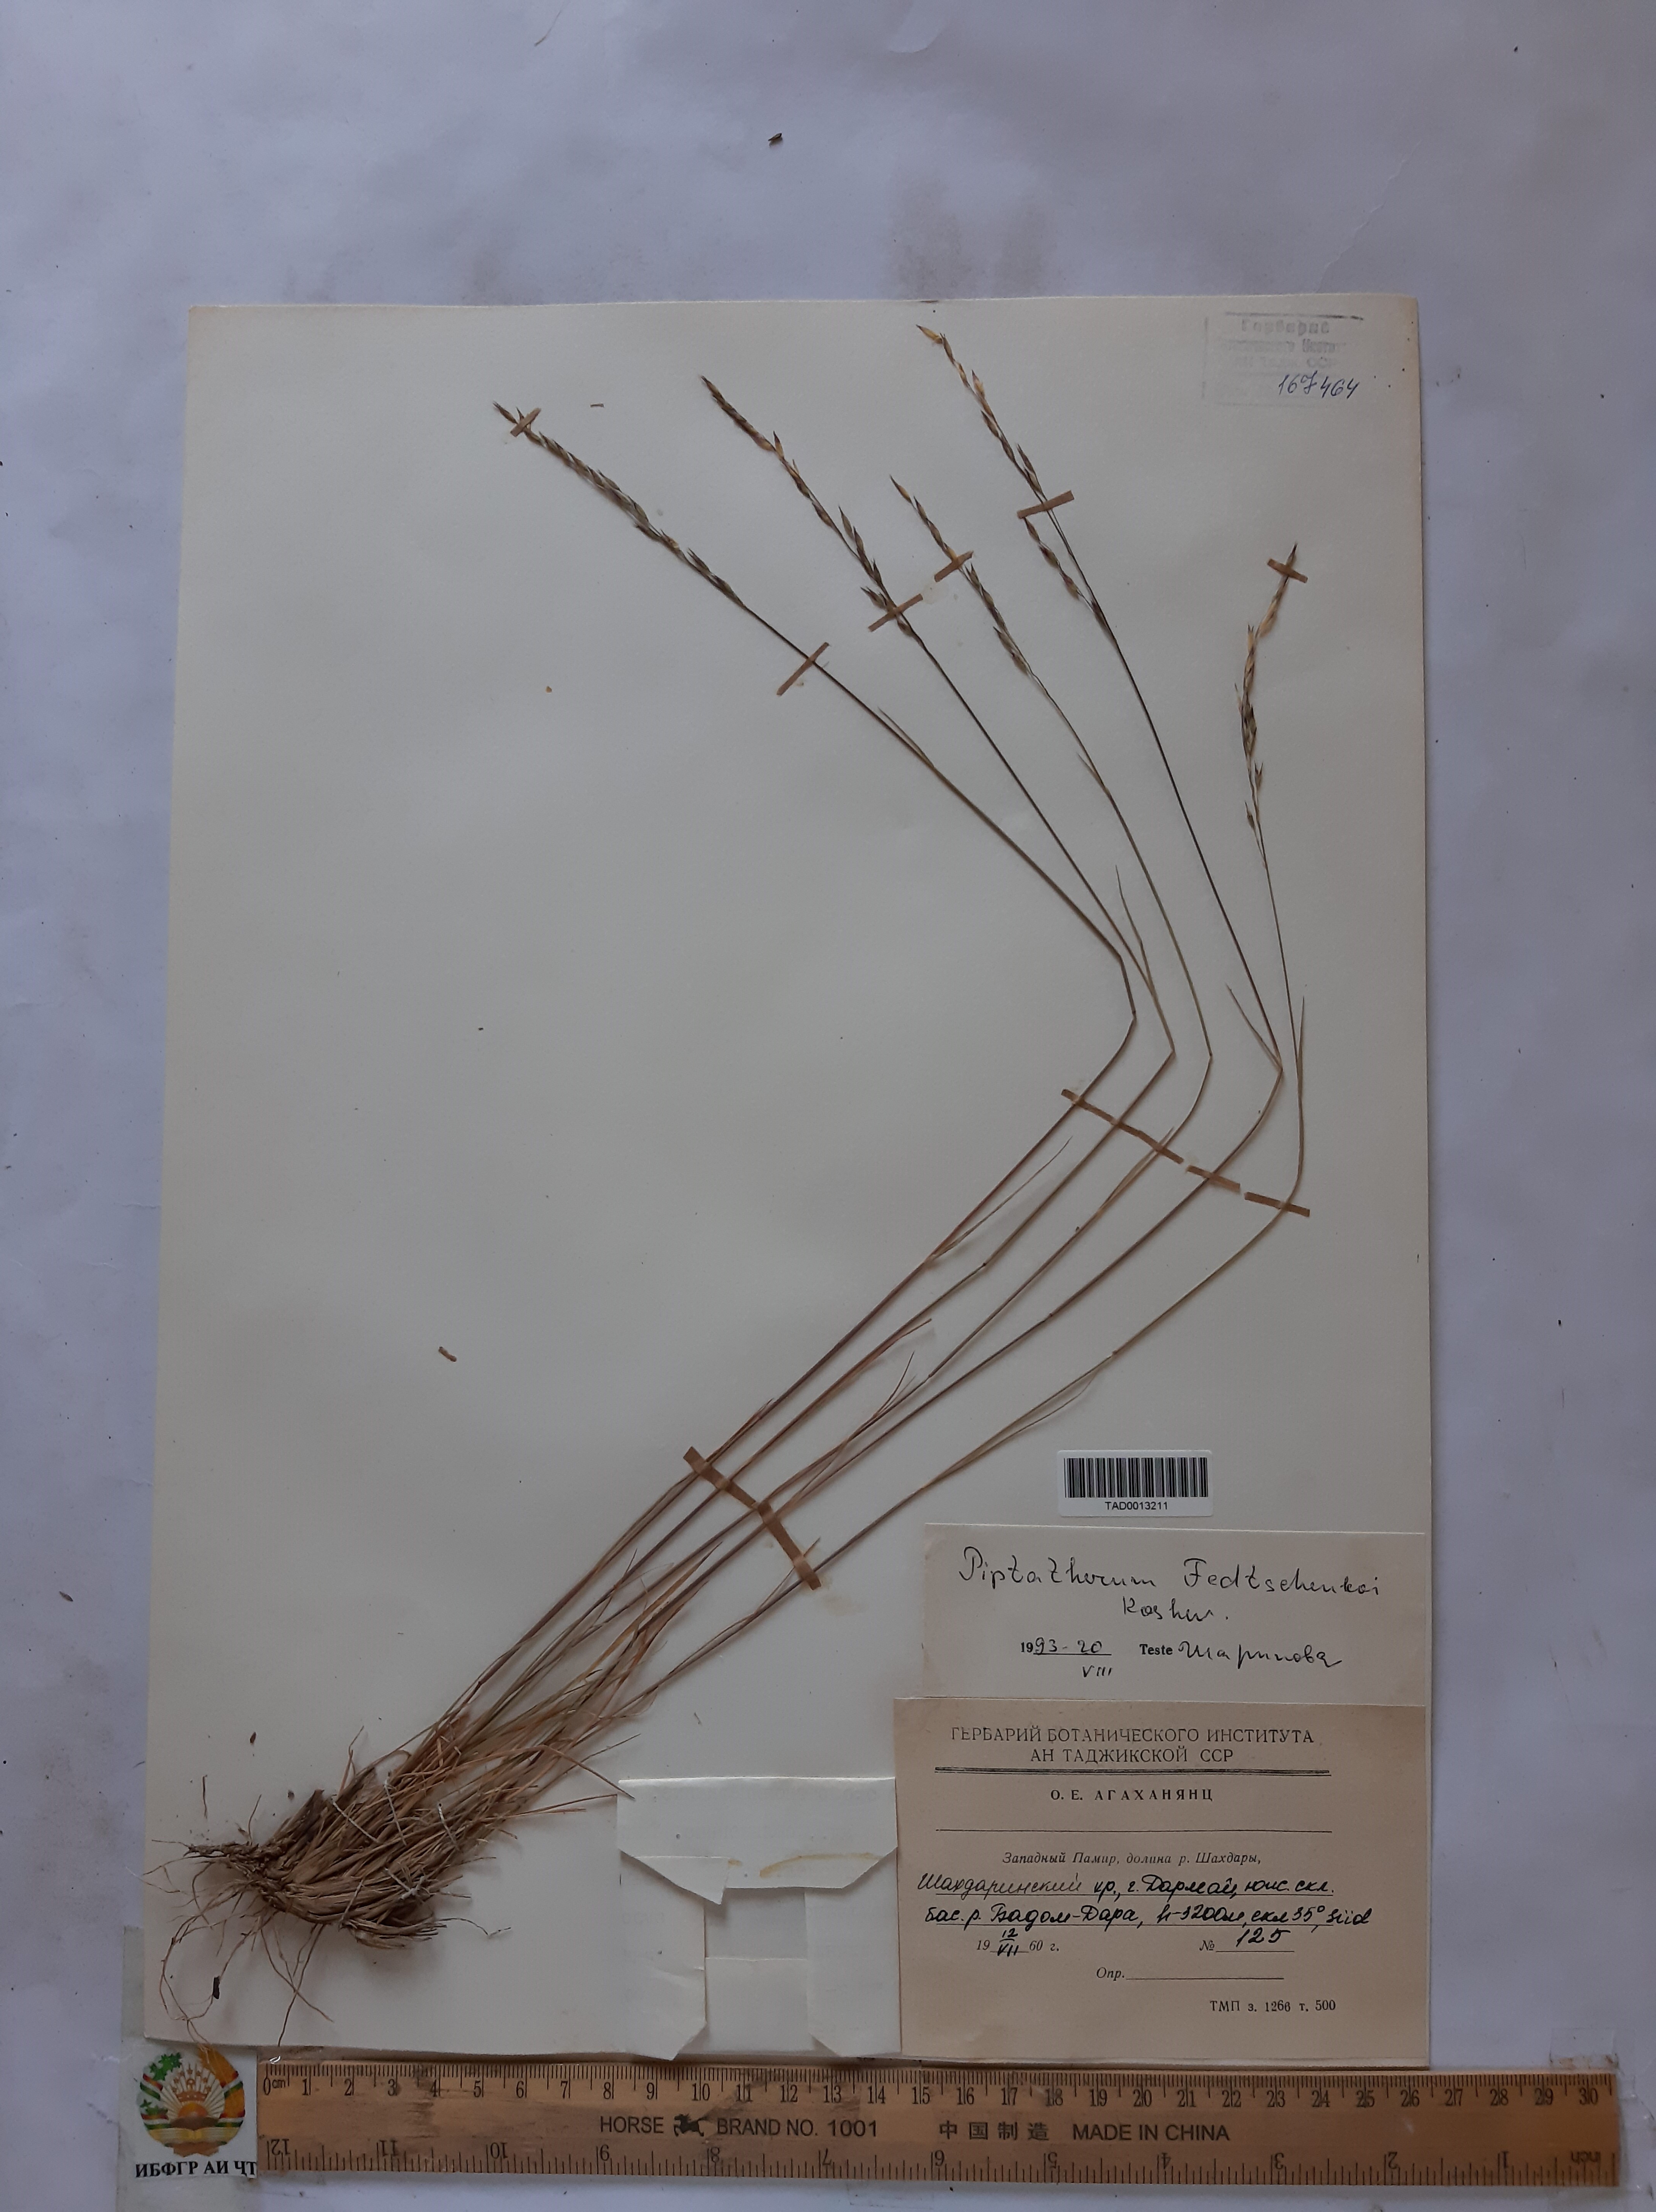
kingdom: Plantae
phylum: Tracheophyta
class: Liliopsida
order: Poales
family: Poaceae
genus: Piptatherum
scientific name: Piptatherum sogdianum
